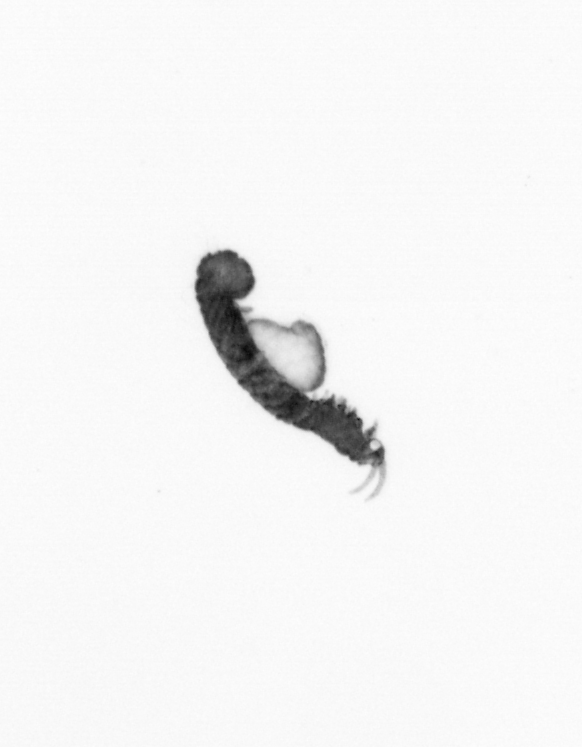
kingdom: Animalia
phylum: Annelida
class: Polychaeta
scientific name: Polychaeta
